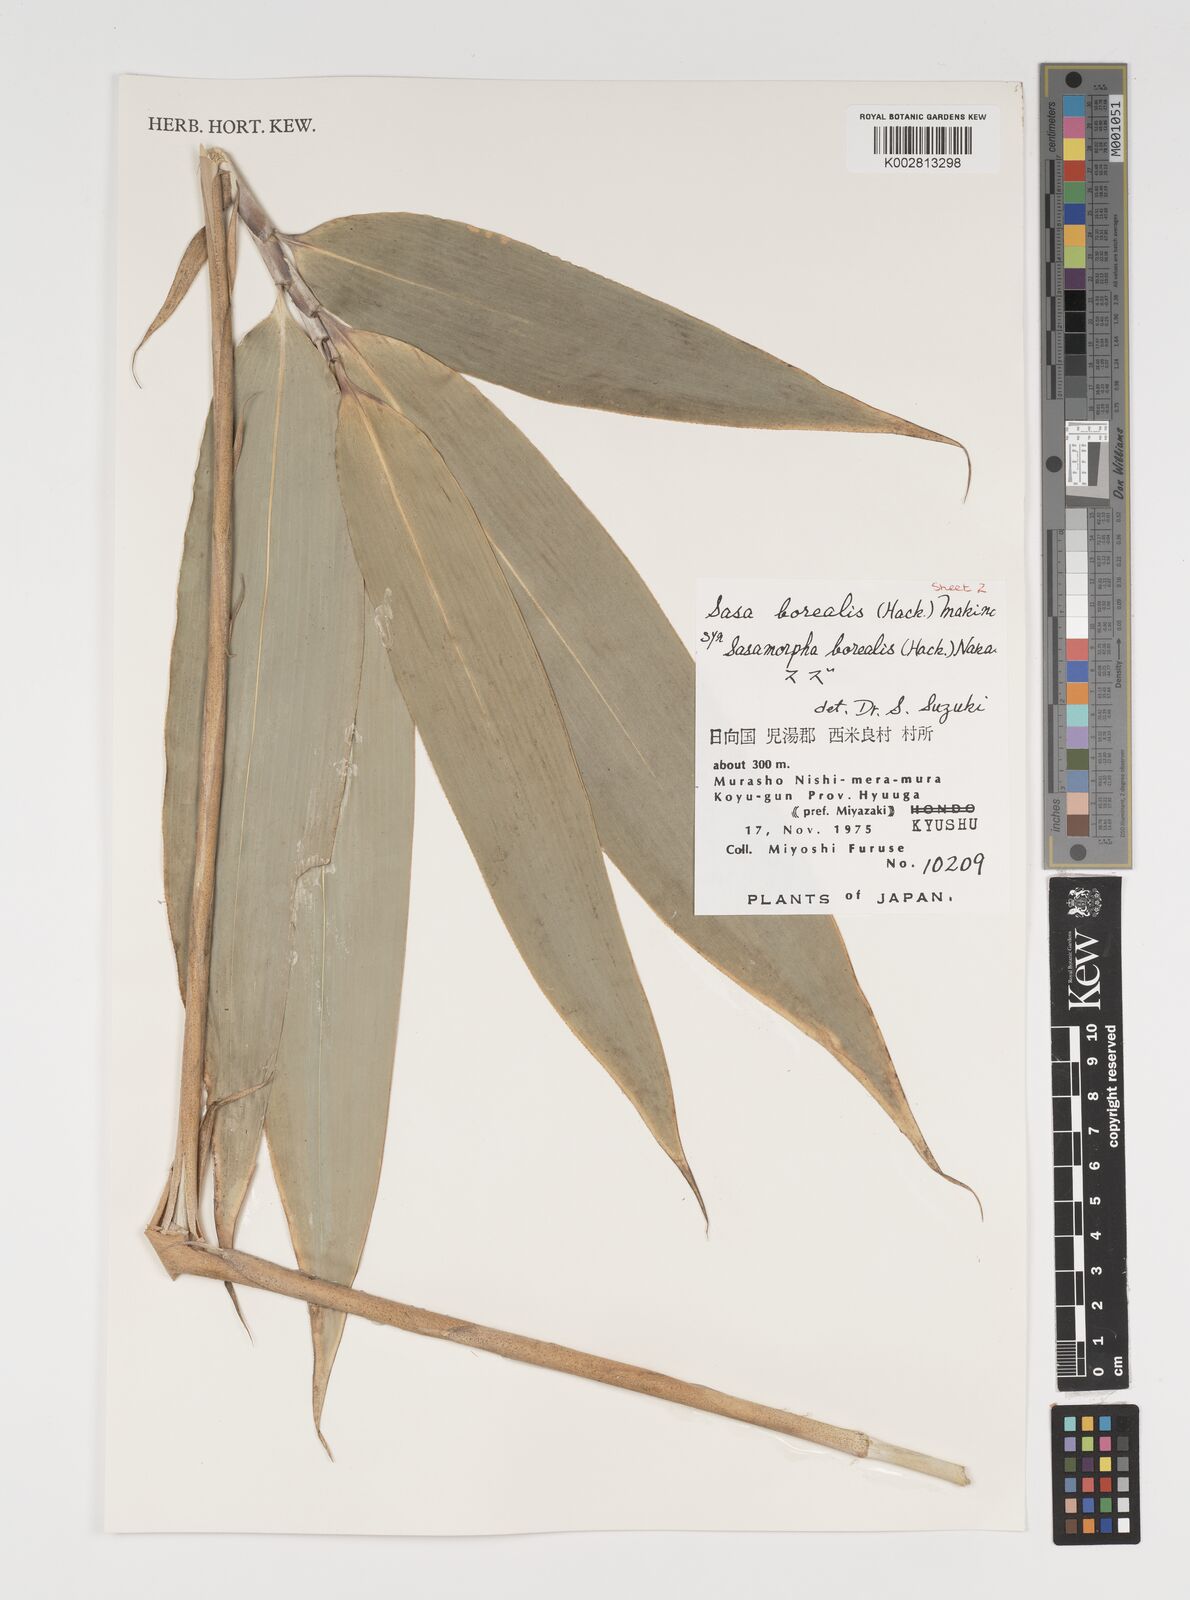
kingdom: Plantae
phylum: Tracheophyta
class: Liliopsida
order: Poales
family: Poaceae
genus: Sasamorpha
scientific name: Sasamorpha borealis
